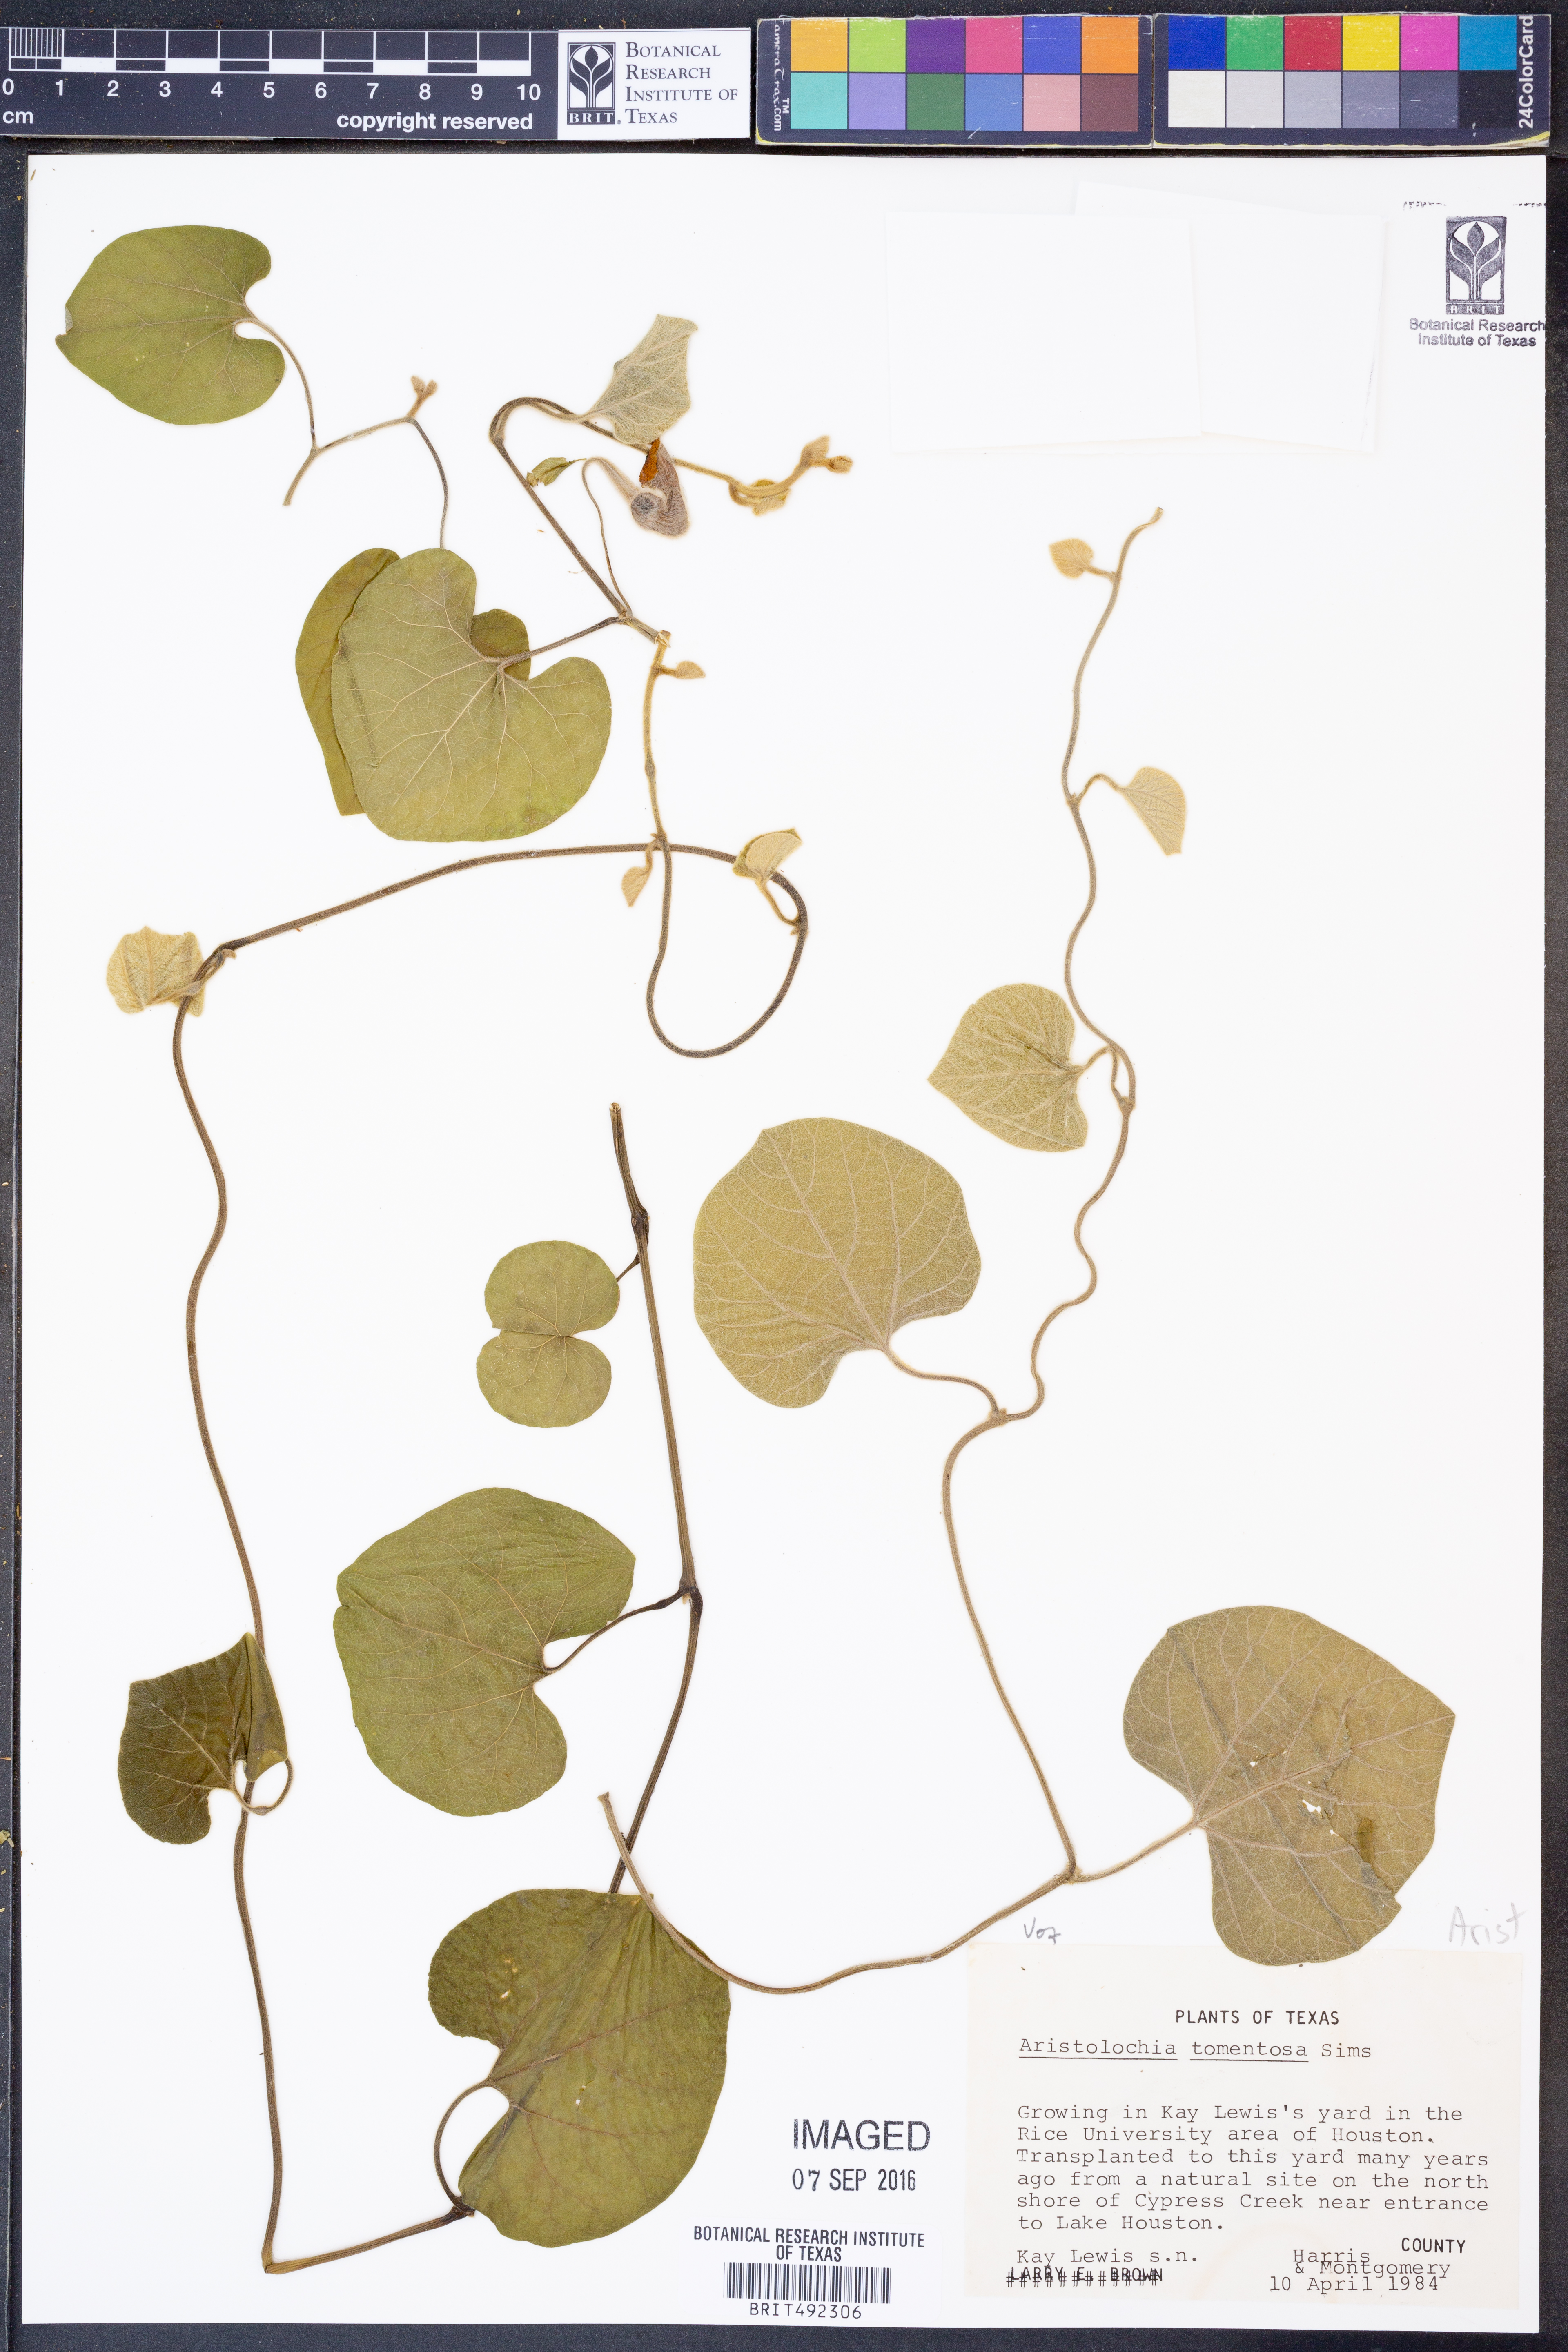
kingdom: Plantae
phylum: Tracheophyta
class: Magnoliopsida
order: Piperales
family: Aristolochiaceae
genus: Isotrema
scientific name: Isotrema tomentosum
